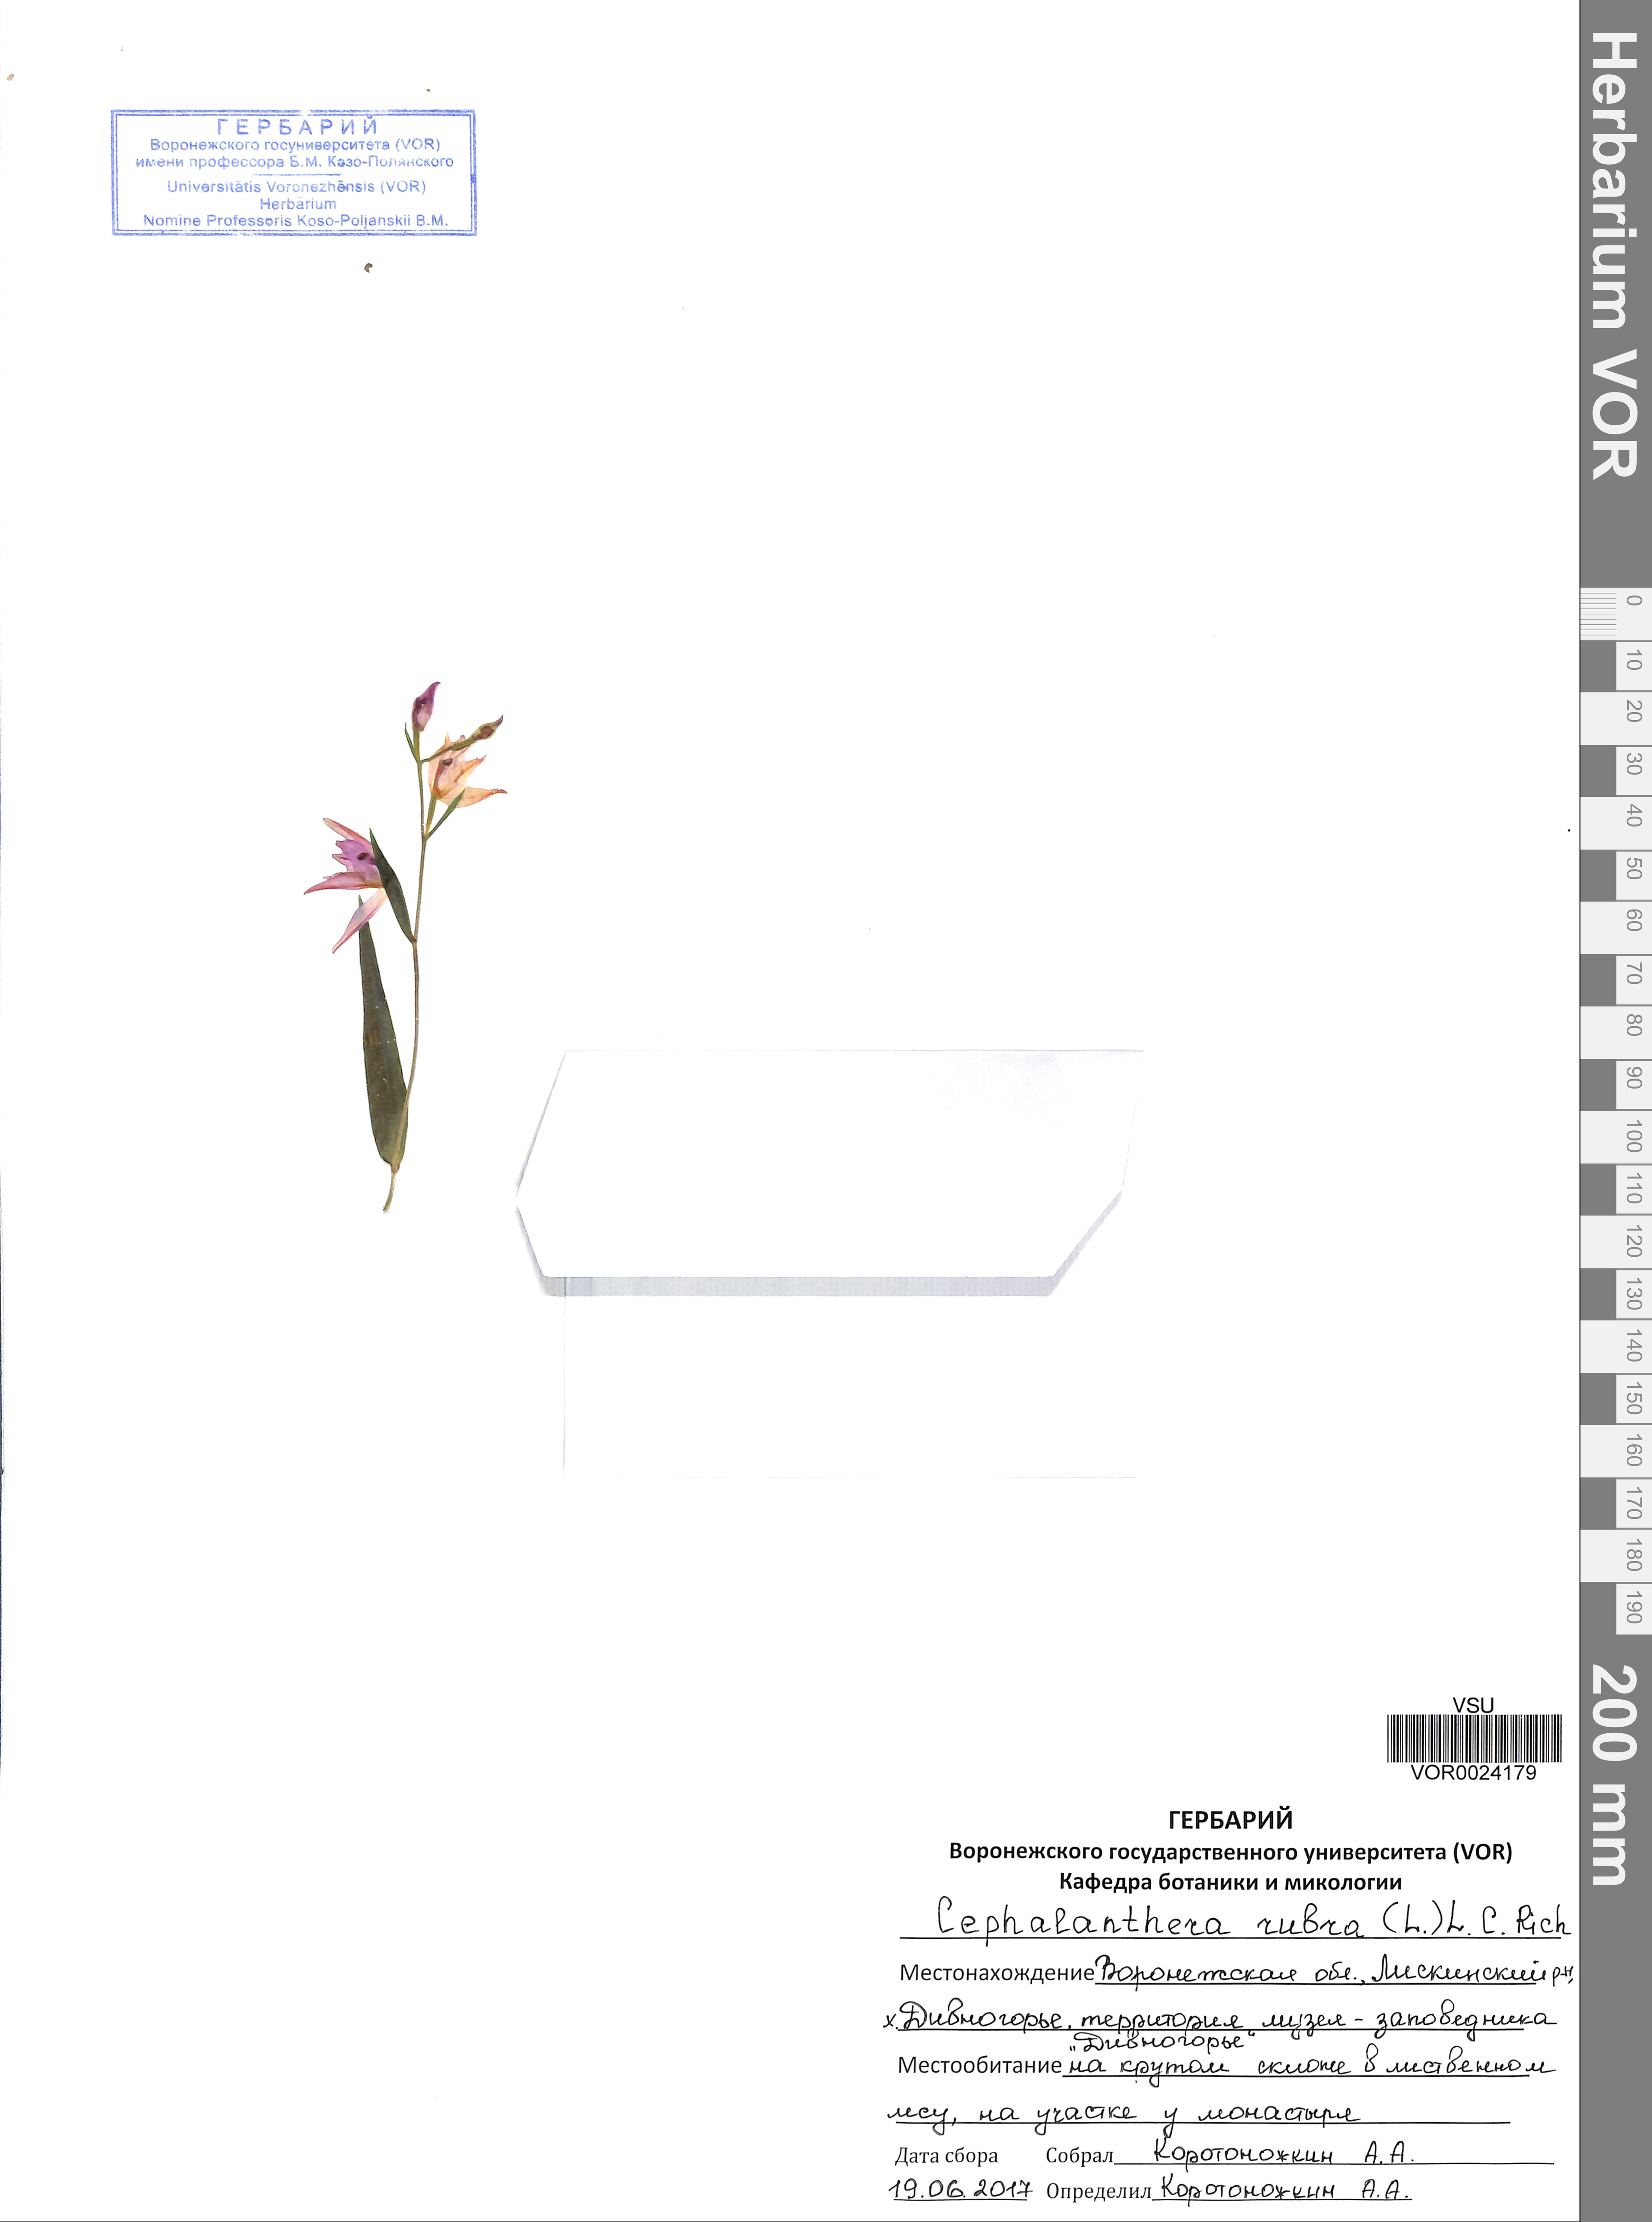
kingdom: Plantae
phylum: Tracheophyta
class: Liliopsida
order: Asparagales
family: Orchidaceae
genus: Cephalanthera
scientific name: Cephalanthera rubra
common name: Red helleborine
